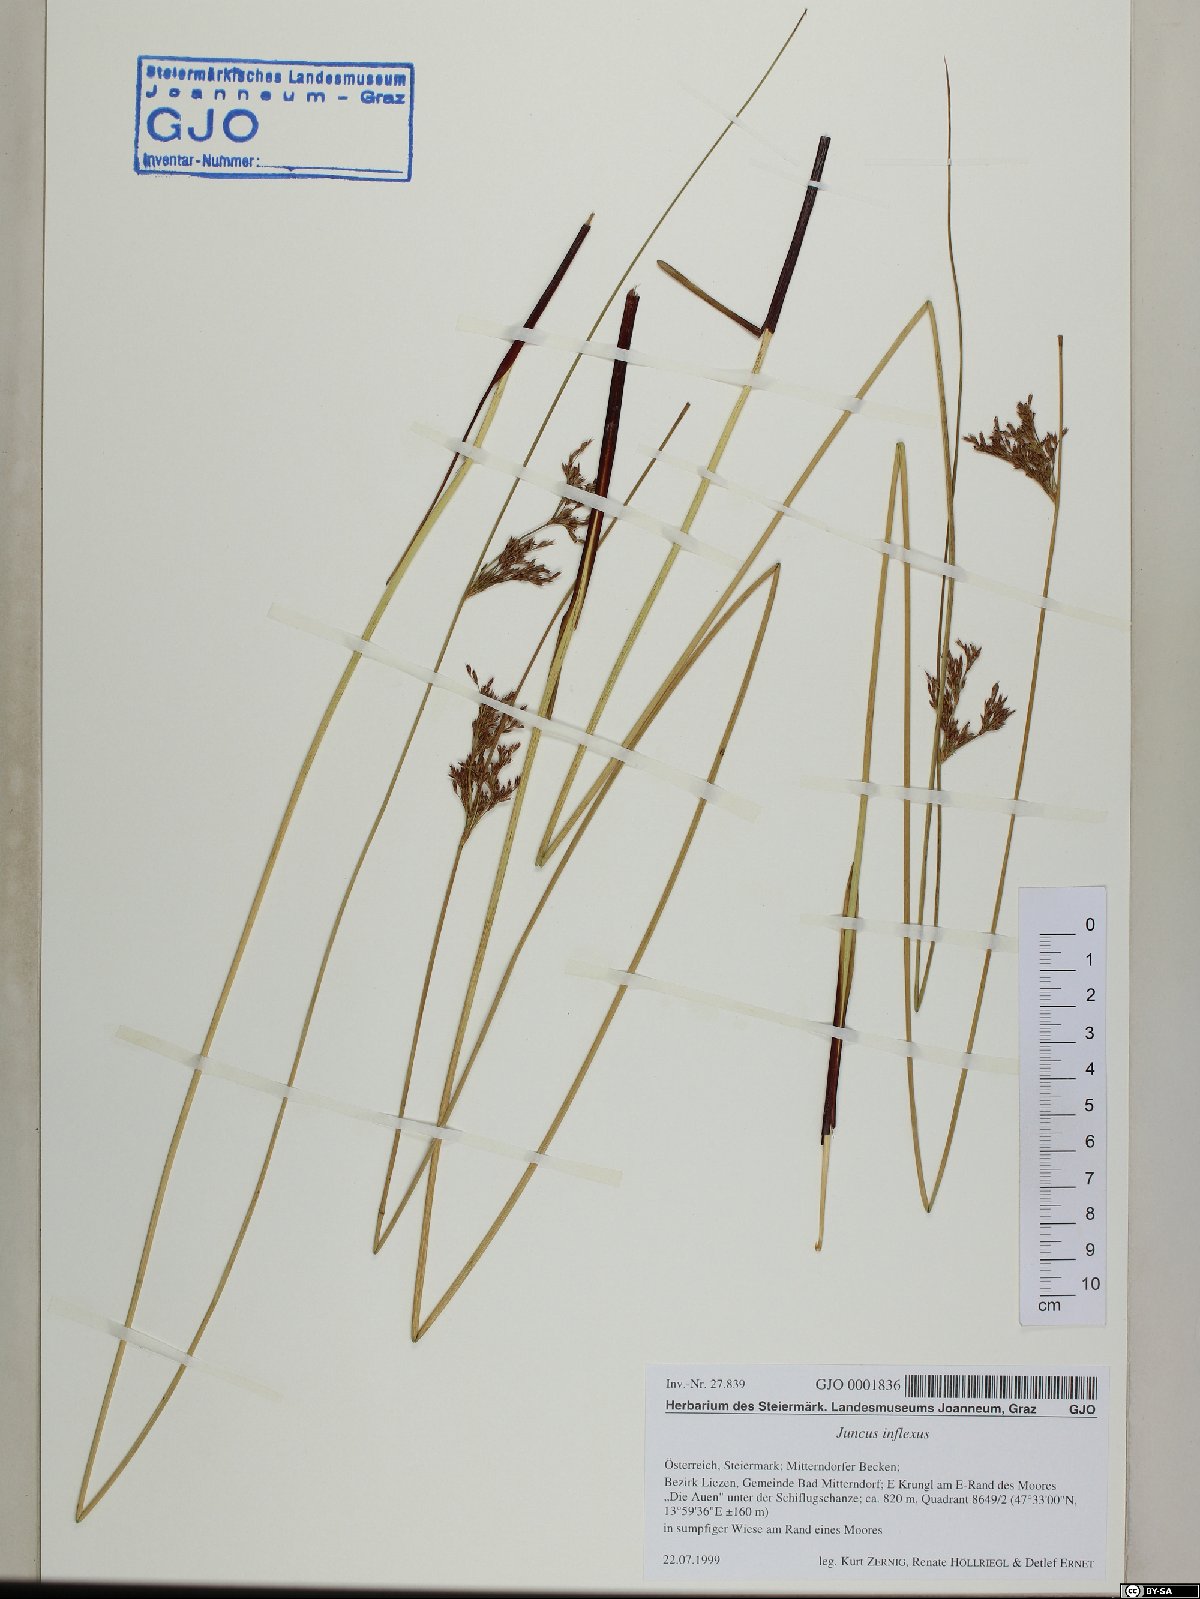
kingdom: Plantae
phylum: Tracheophyta
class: Liliopsida
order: Poales
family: Juncaceae
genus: Juncus
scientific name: Juncus inflexus
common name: Hard rush
